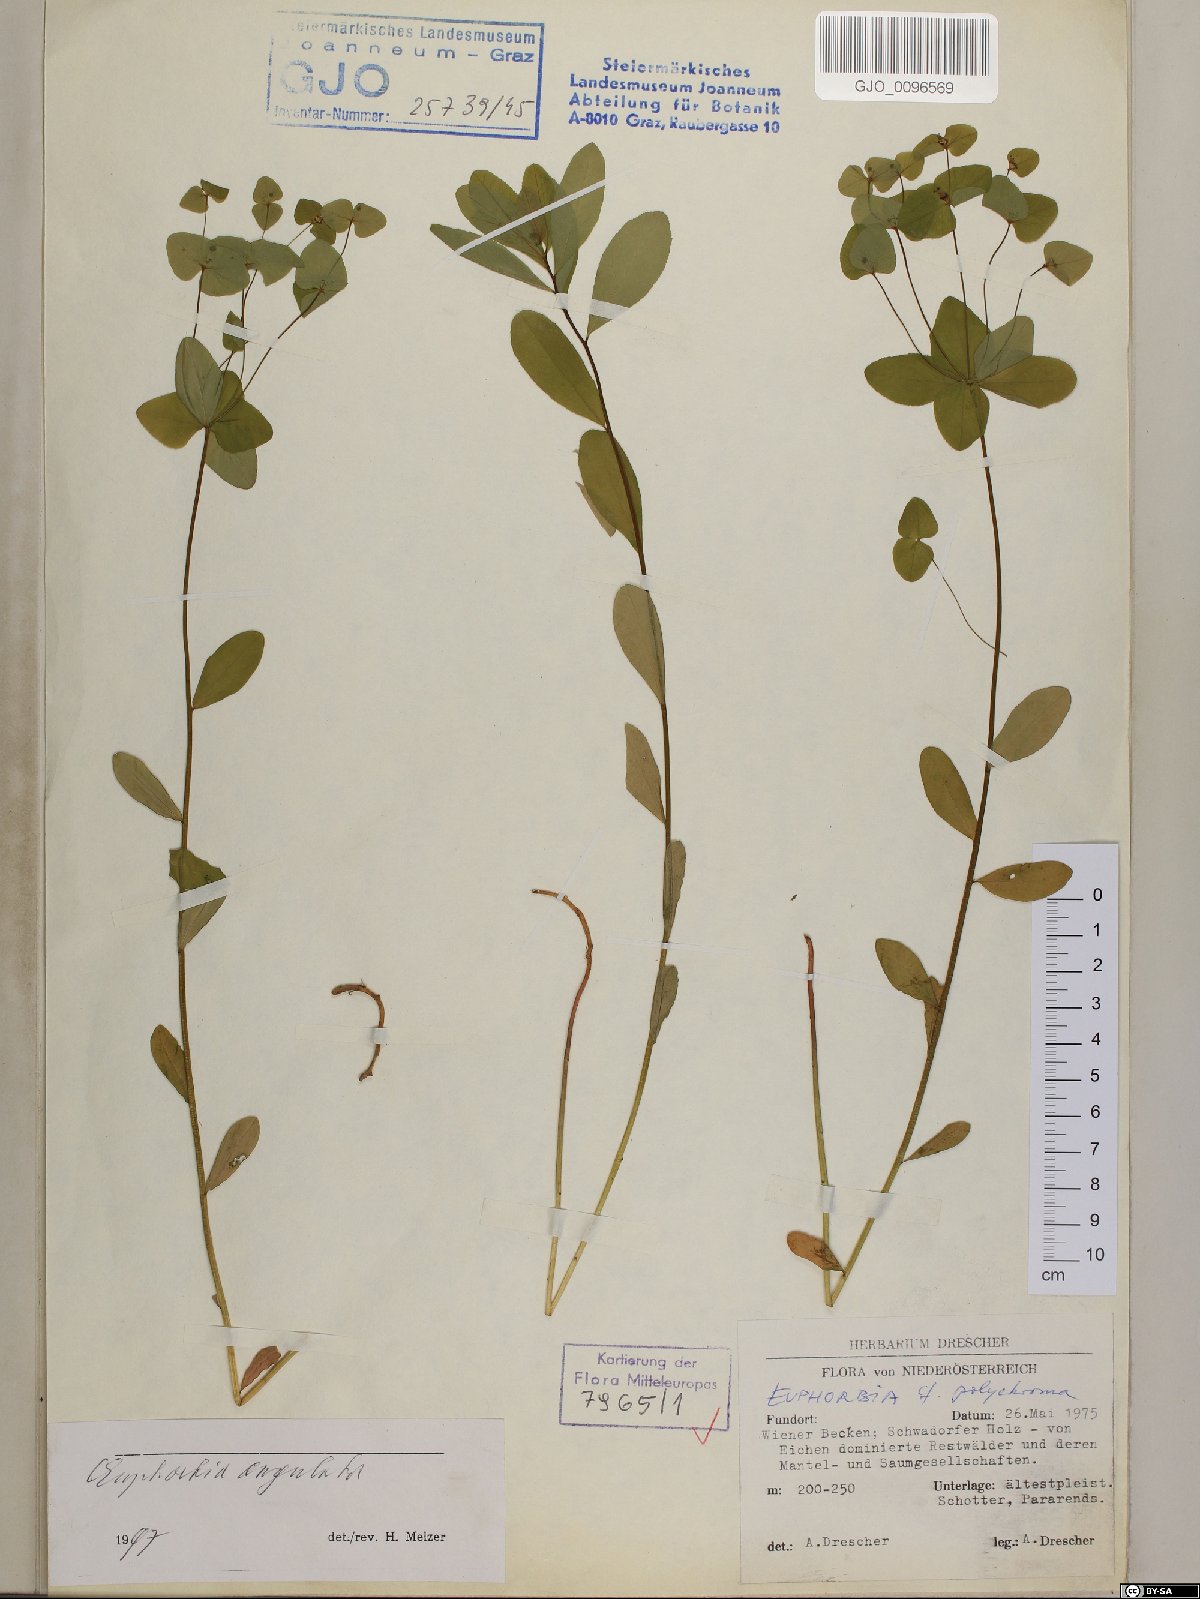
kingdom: Plantae
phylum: Tracheophyta
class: Magnoliopsida
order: Malpighiales
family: Euphorbiaceae
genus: Euphorbia
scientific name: Euphorbia angulata
